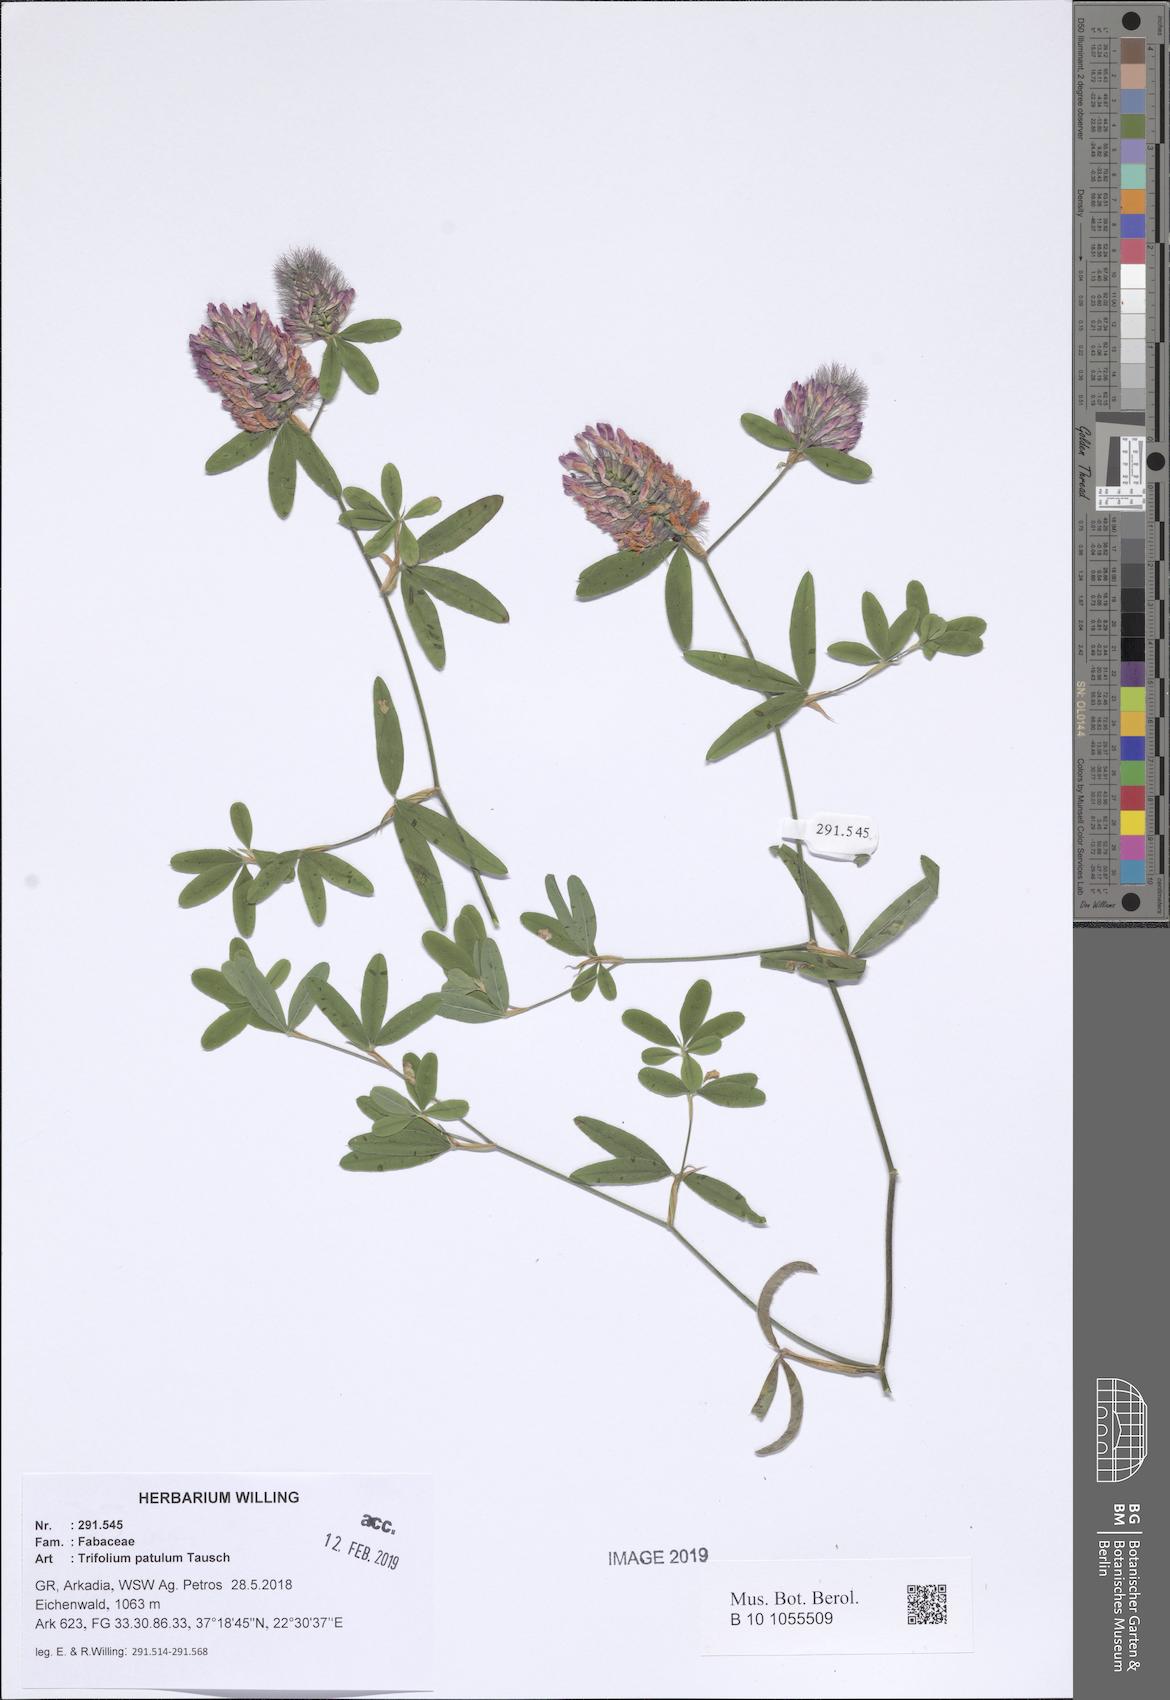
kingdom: Plantae
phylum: Tracheophyta
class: Magnoliopsida
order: Fabales
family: Fabaceae
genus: Trifolium
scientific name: Trifolium patulum
